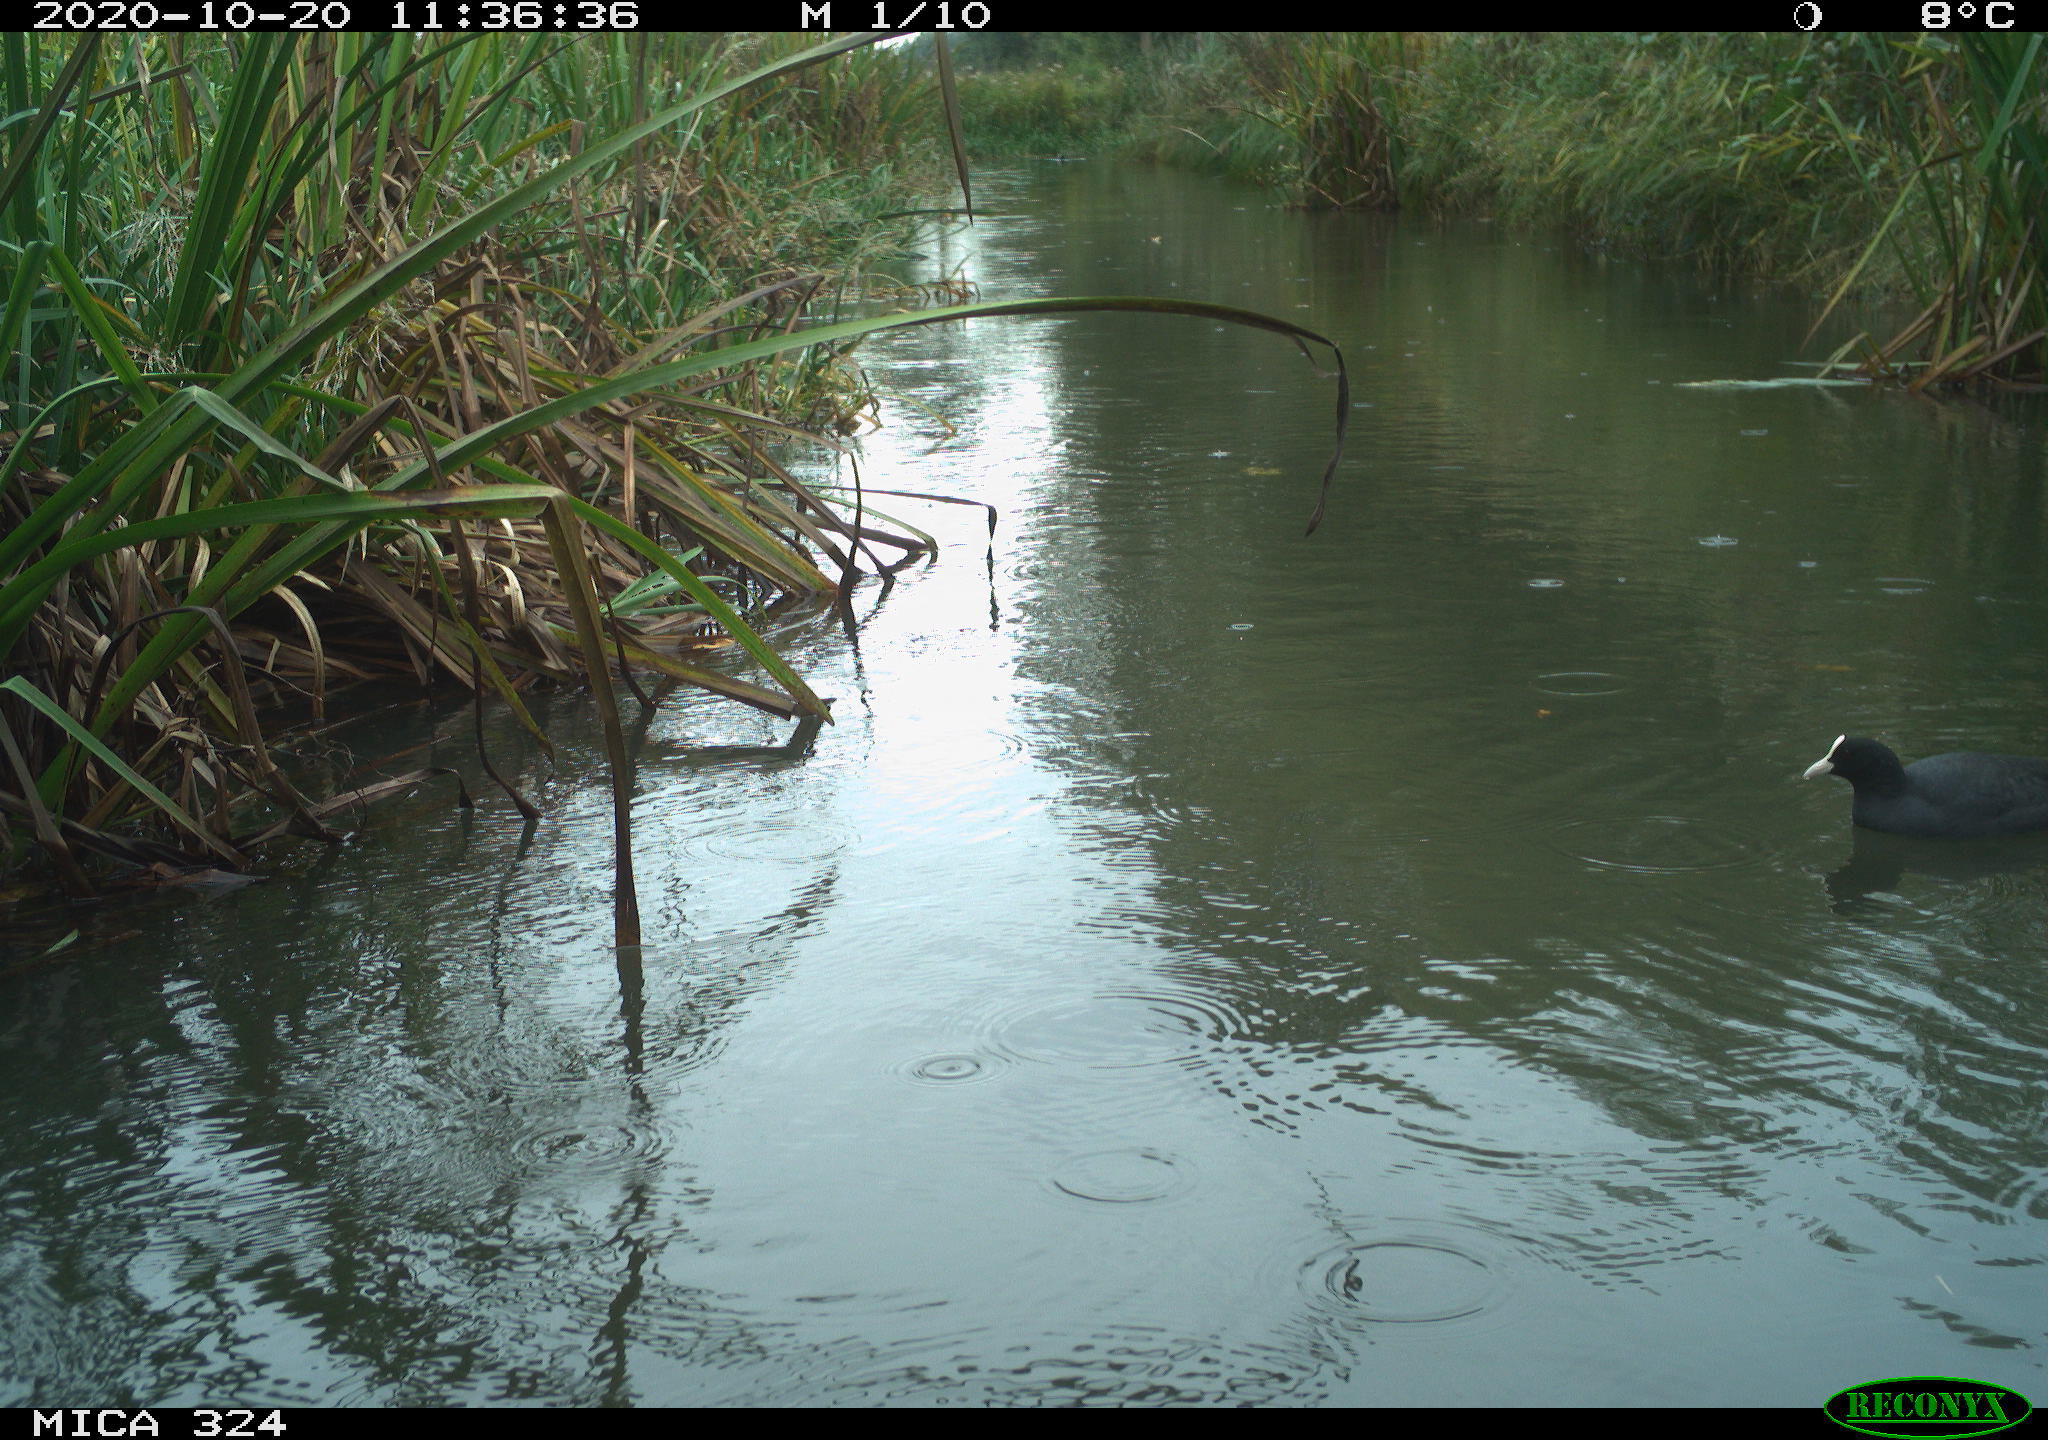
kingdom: Animalia
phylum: Chordata
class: Aves
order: Gruiformes
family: Rallidae
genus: Fulica
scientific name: Fulica atra
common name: Eurasian coot
